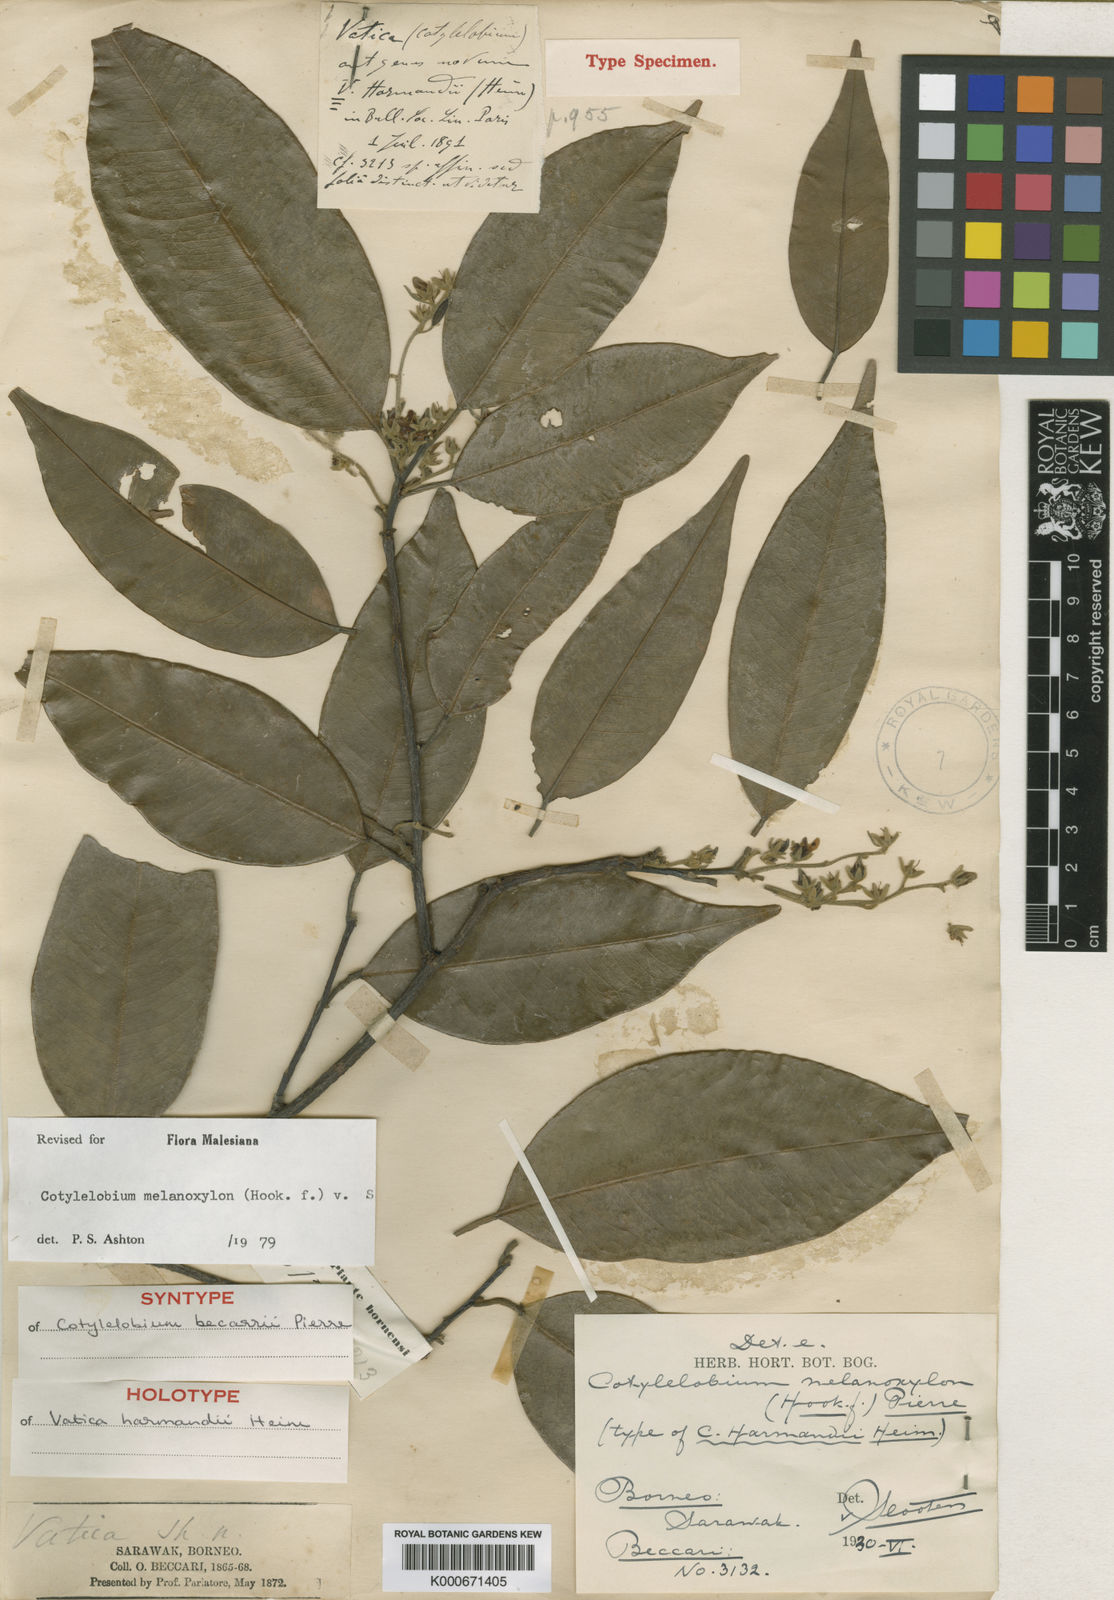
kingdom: Plantae
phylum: Tracheophyta
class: Magnoliopsida
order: Malvales
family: Dipterocarpaceae
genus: Cotylelobium
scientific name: Cotylelobium melanoxylon
